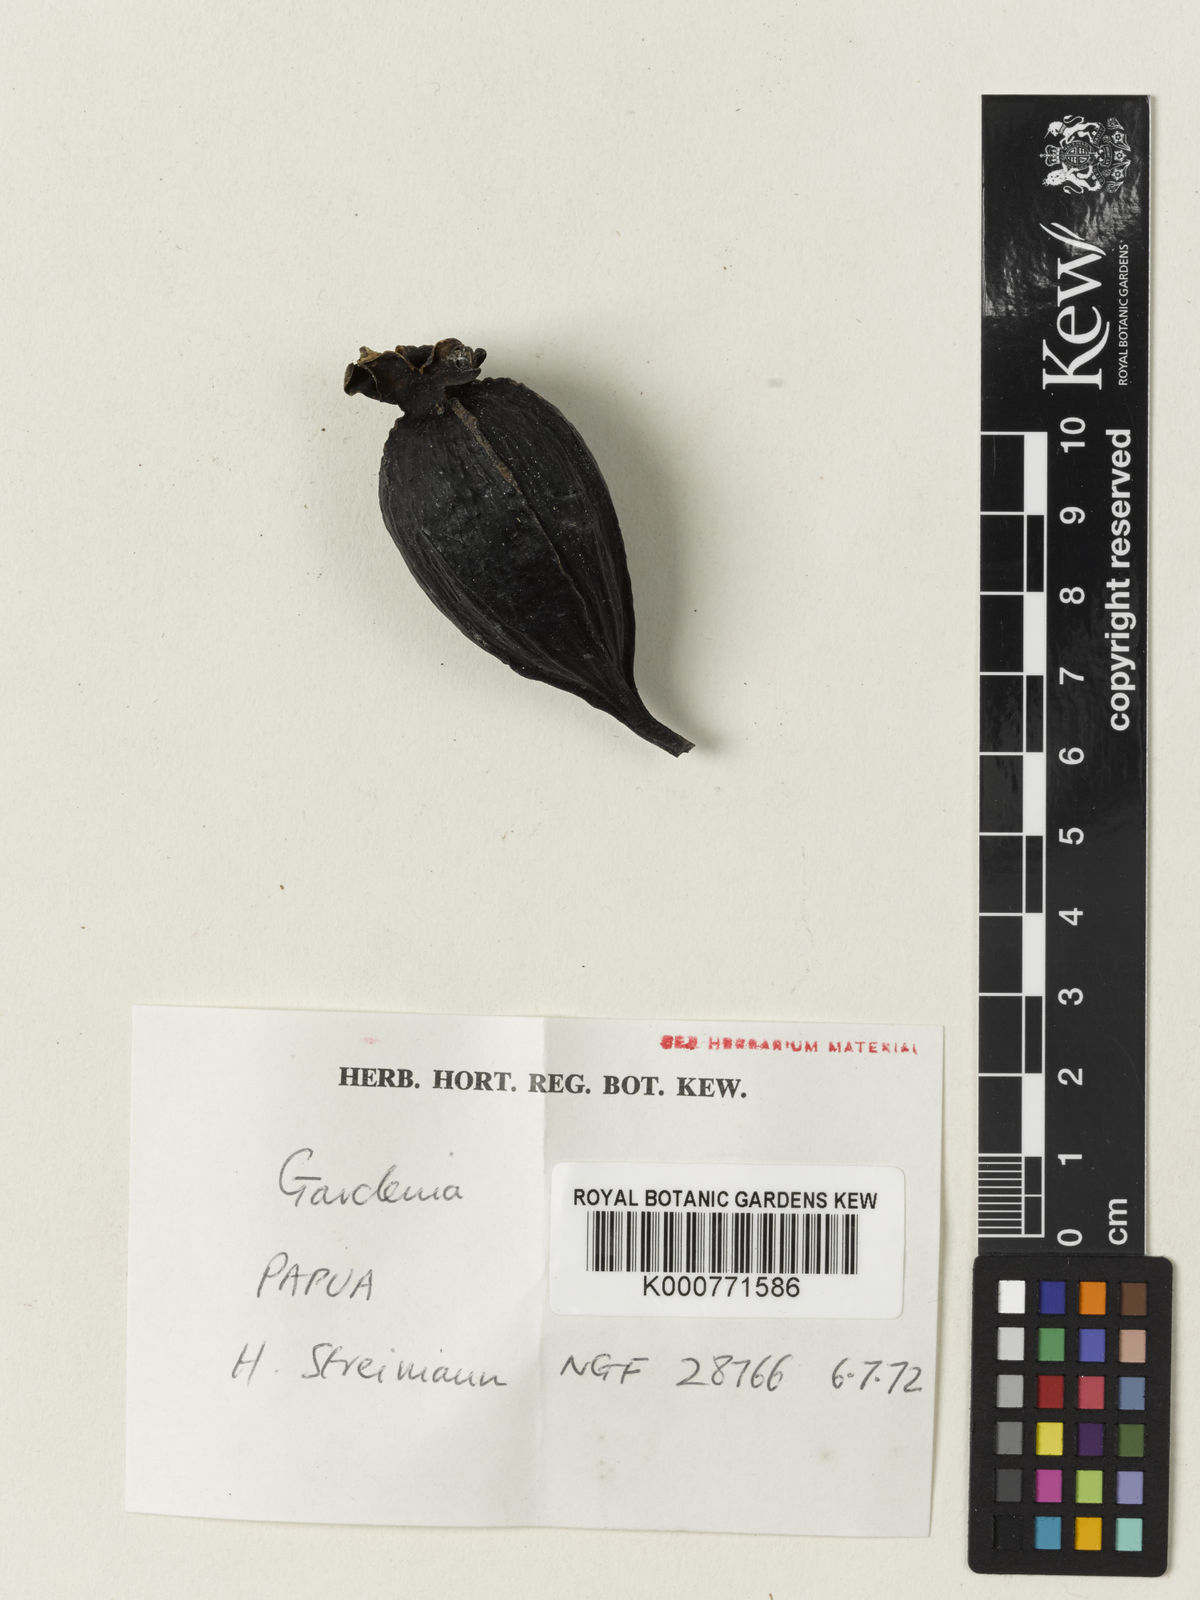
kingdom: Plantae
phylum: Tracheophyta
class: Magnoliopsida
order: Gentianales
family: Rubiaceae
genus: Gardenia
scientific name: Gardenia hansemannii
